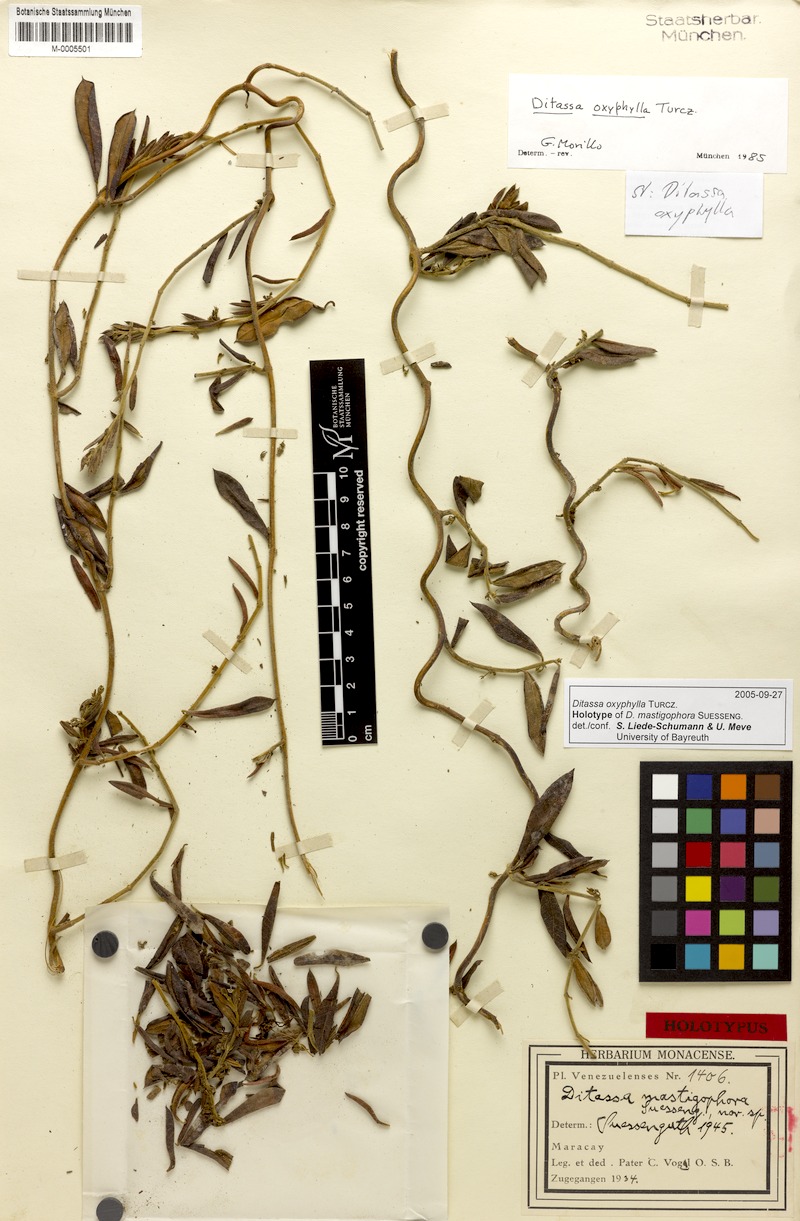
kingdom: Plantae
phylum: Tracheophyta
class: Magnoliopsida
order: Gentianales
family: Apocynaceae
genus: Ditassa
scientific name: Ditassa oxyphylla
